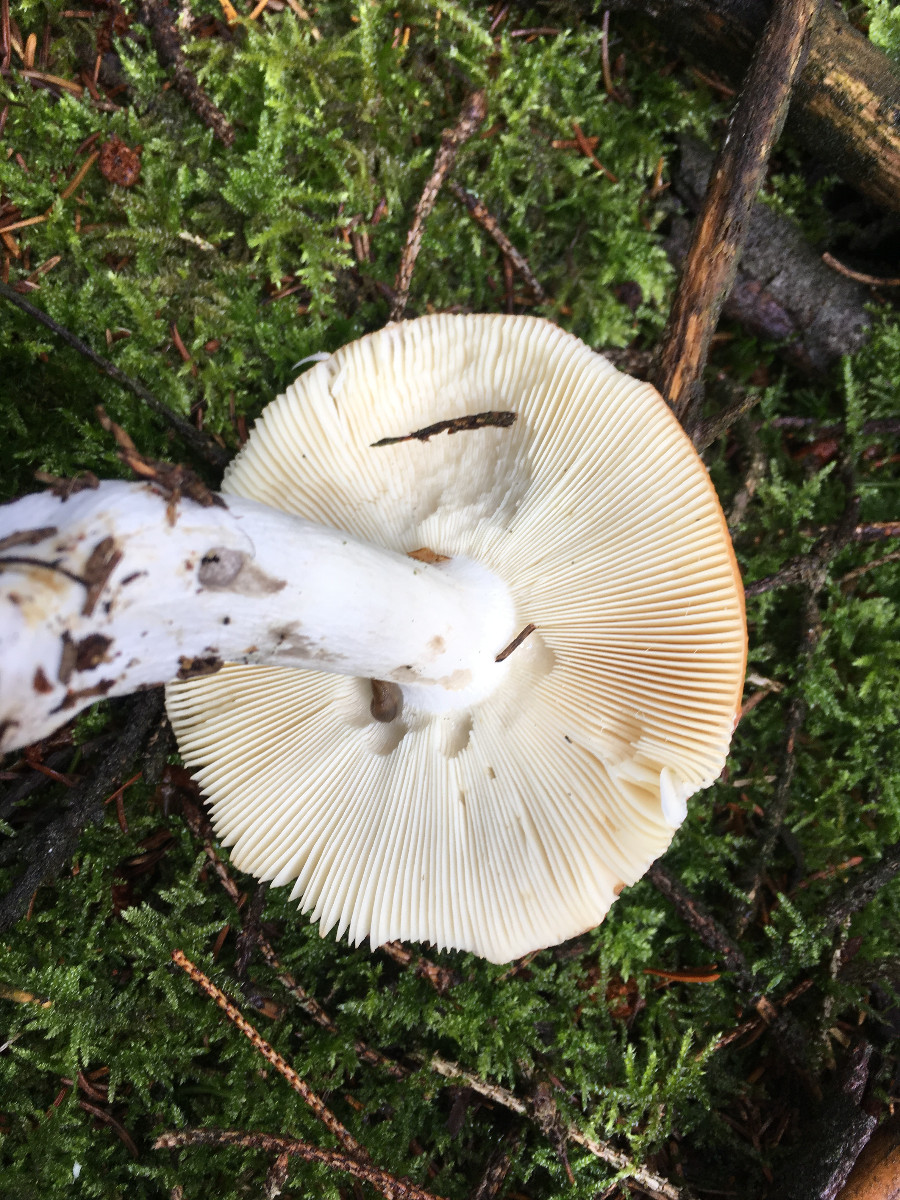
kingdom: Fungi
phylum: Basidiomycota
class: Agaricomycetes
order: Russulales
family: Russulaceae
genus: Russula
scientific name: Russula decolorans
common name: afblegende skørhat
